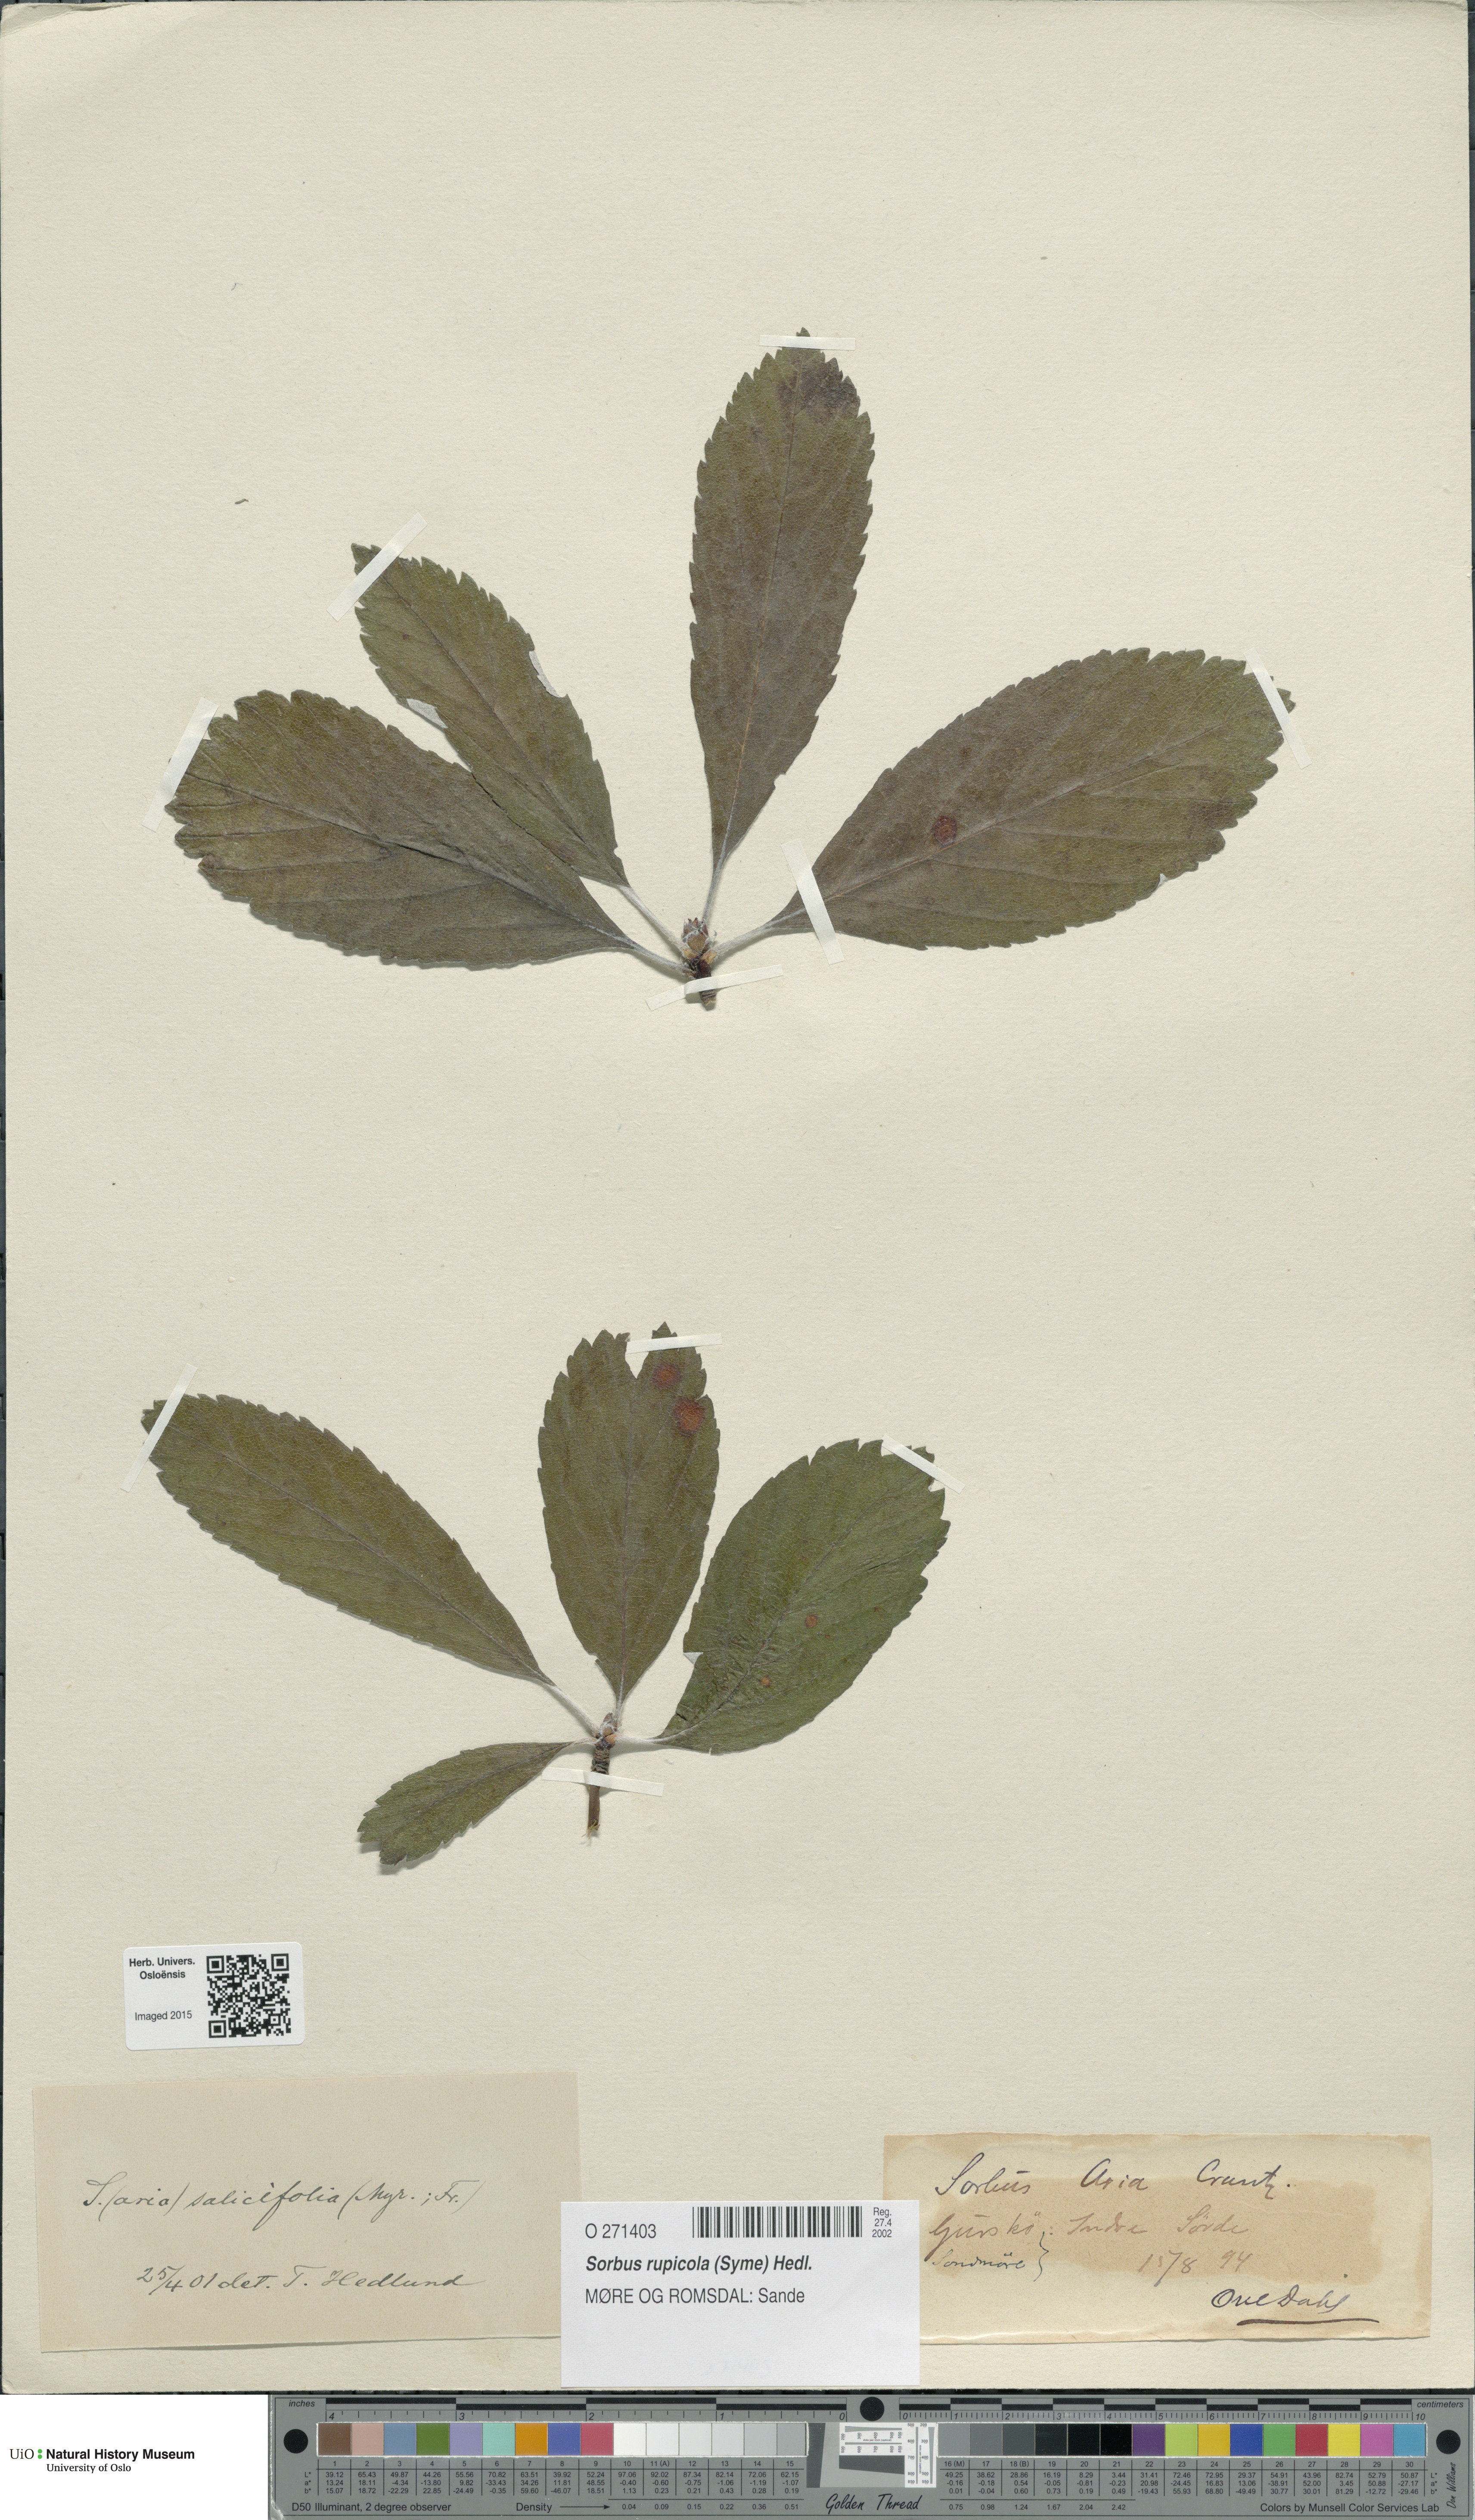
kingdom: Plantae
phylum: Tracheophyta
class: Magnoliopsida
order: Rosales
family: Rosaceae
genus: Aria
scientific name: Aria rupicola
